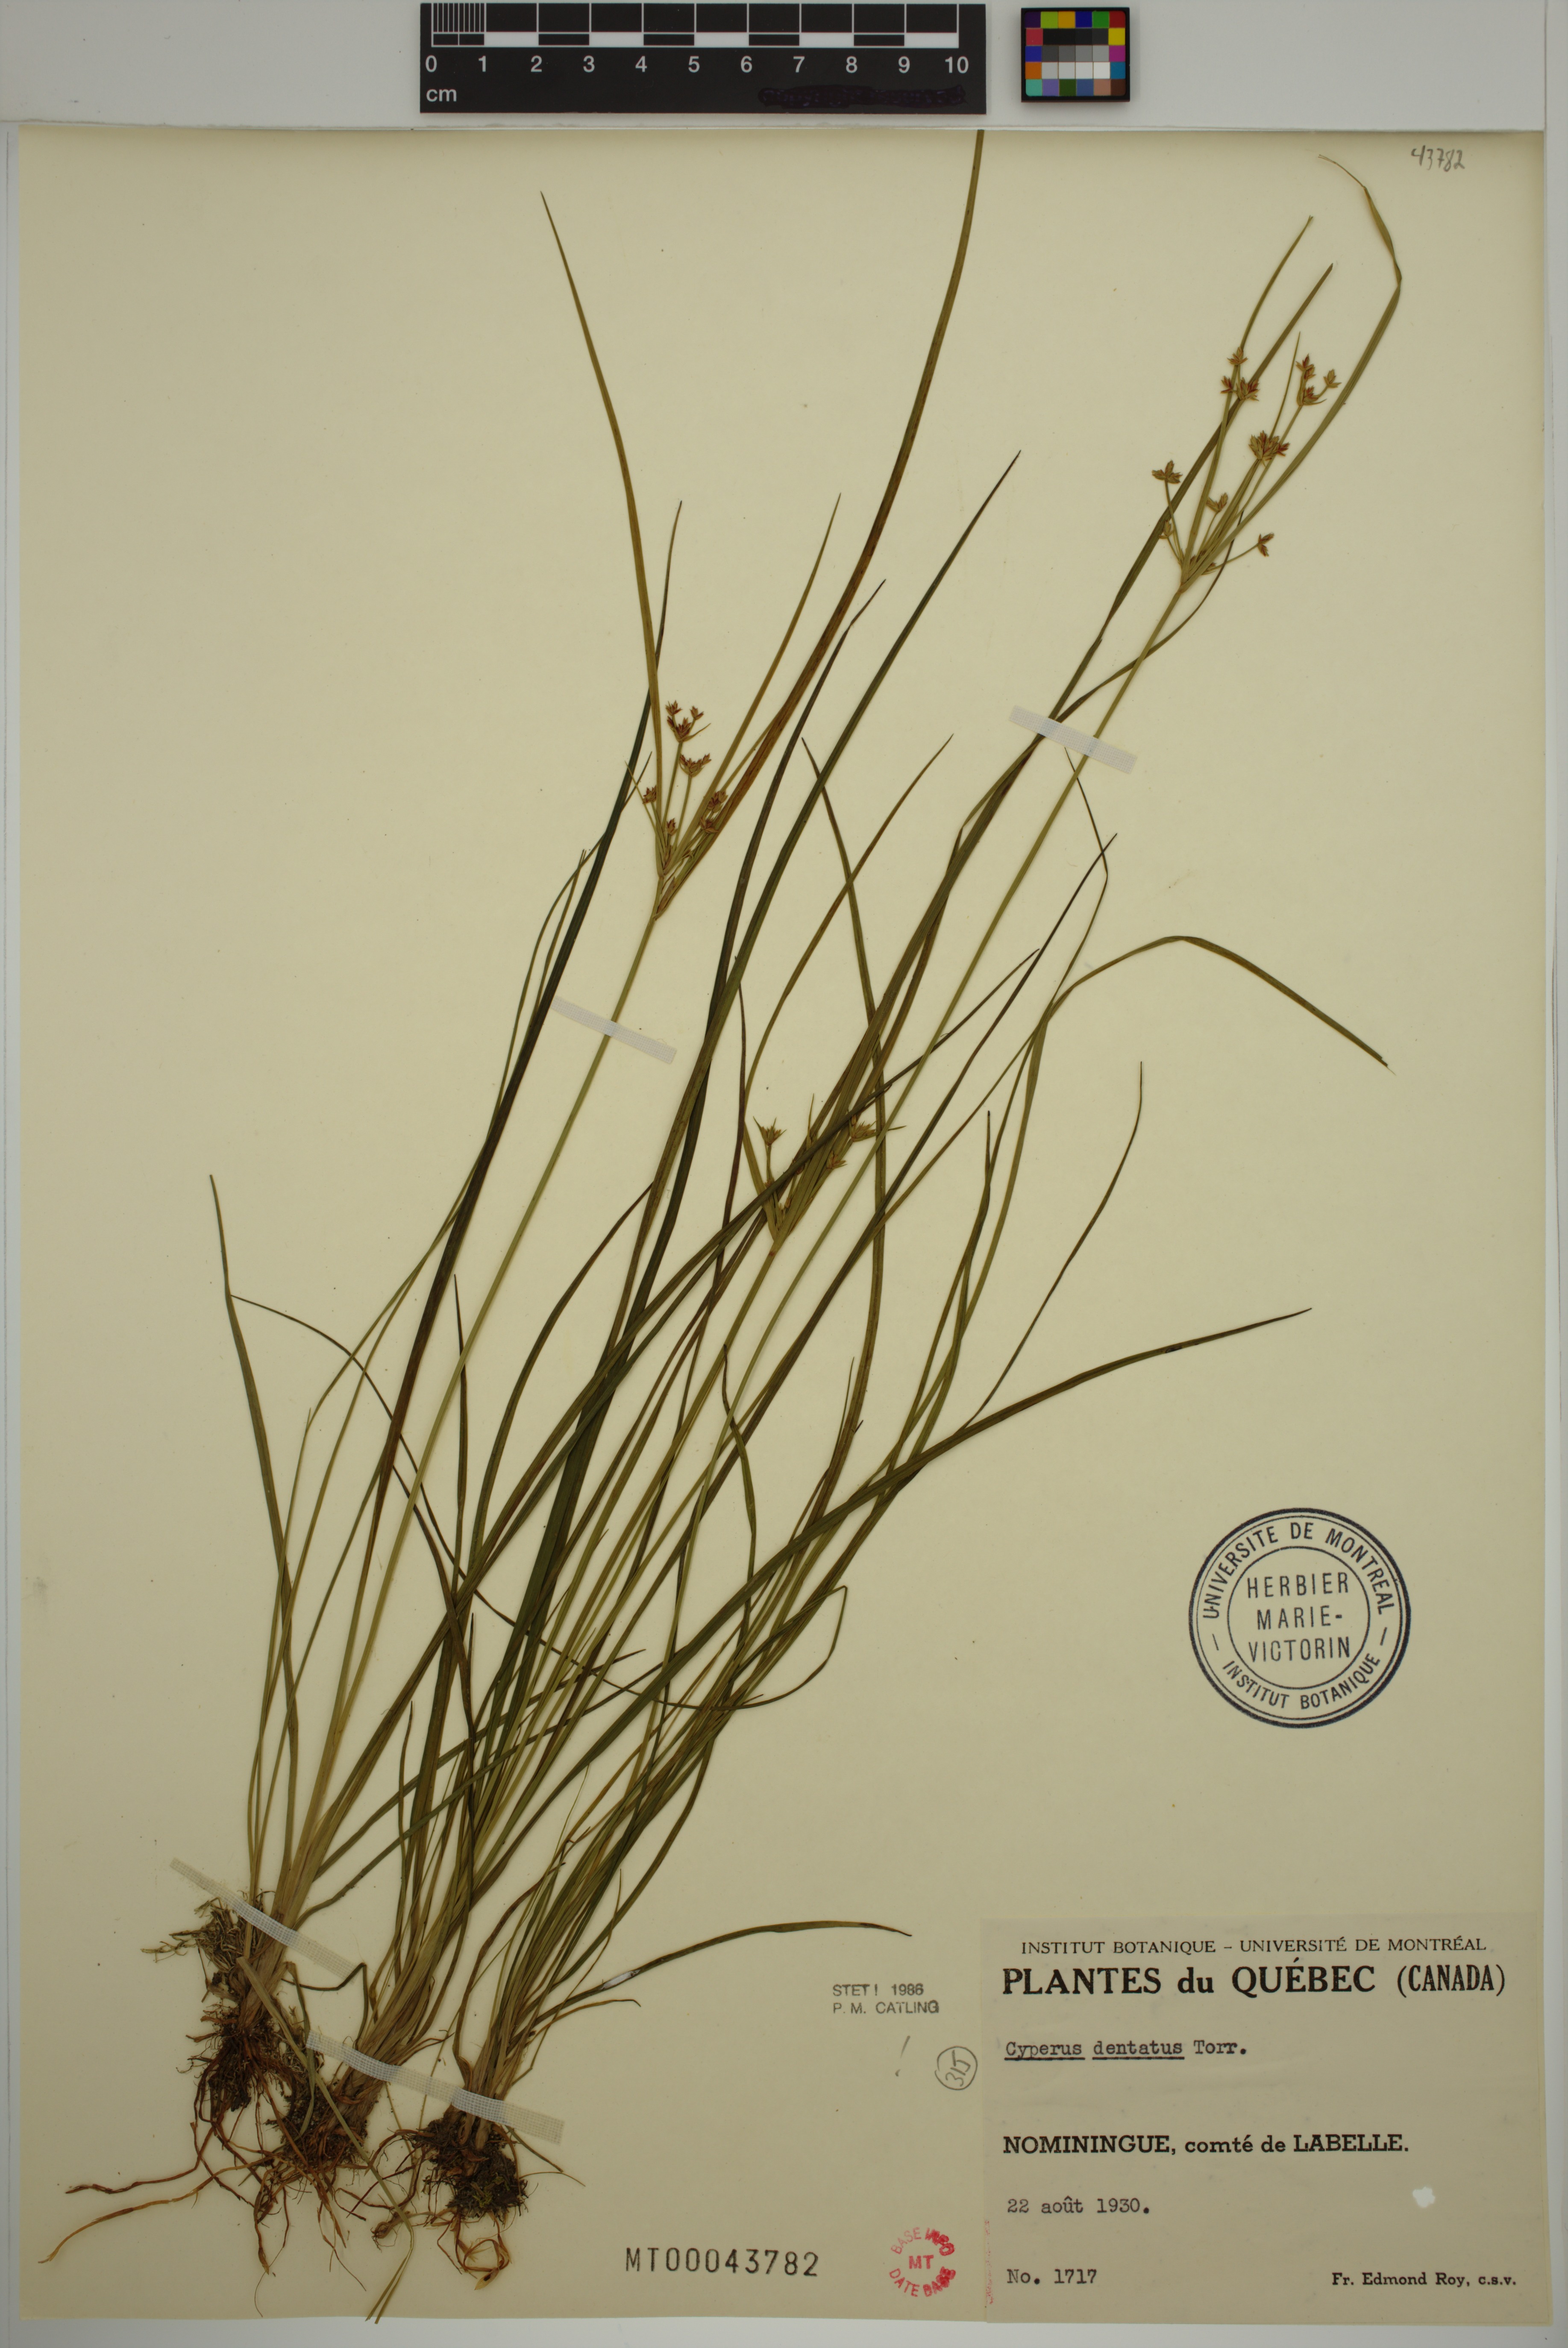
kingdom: Plantae
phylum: Tracheophyta
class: Liliopsida
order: Poales
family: Cyperaceae
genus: Cyperus
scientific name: Cyperus dentatus
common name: Dentate umbrella sedge
